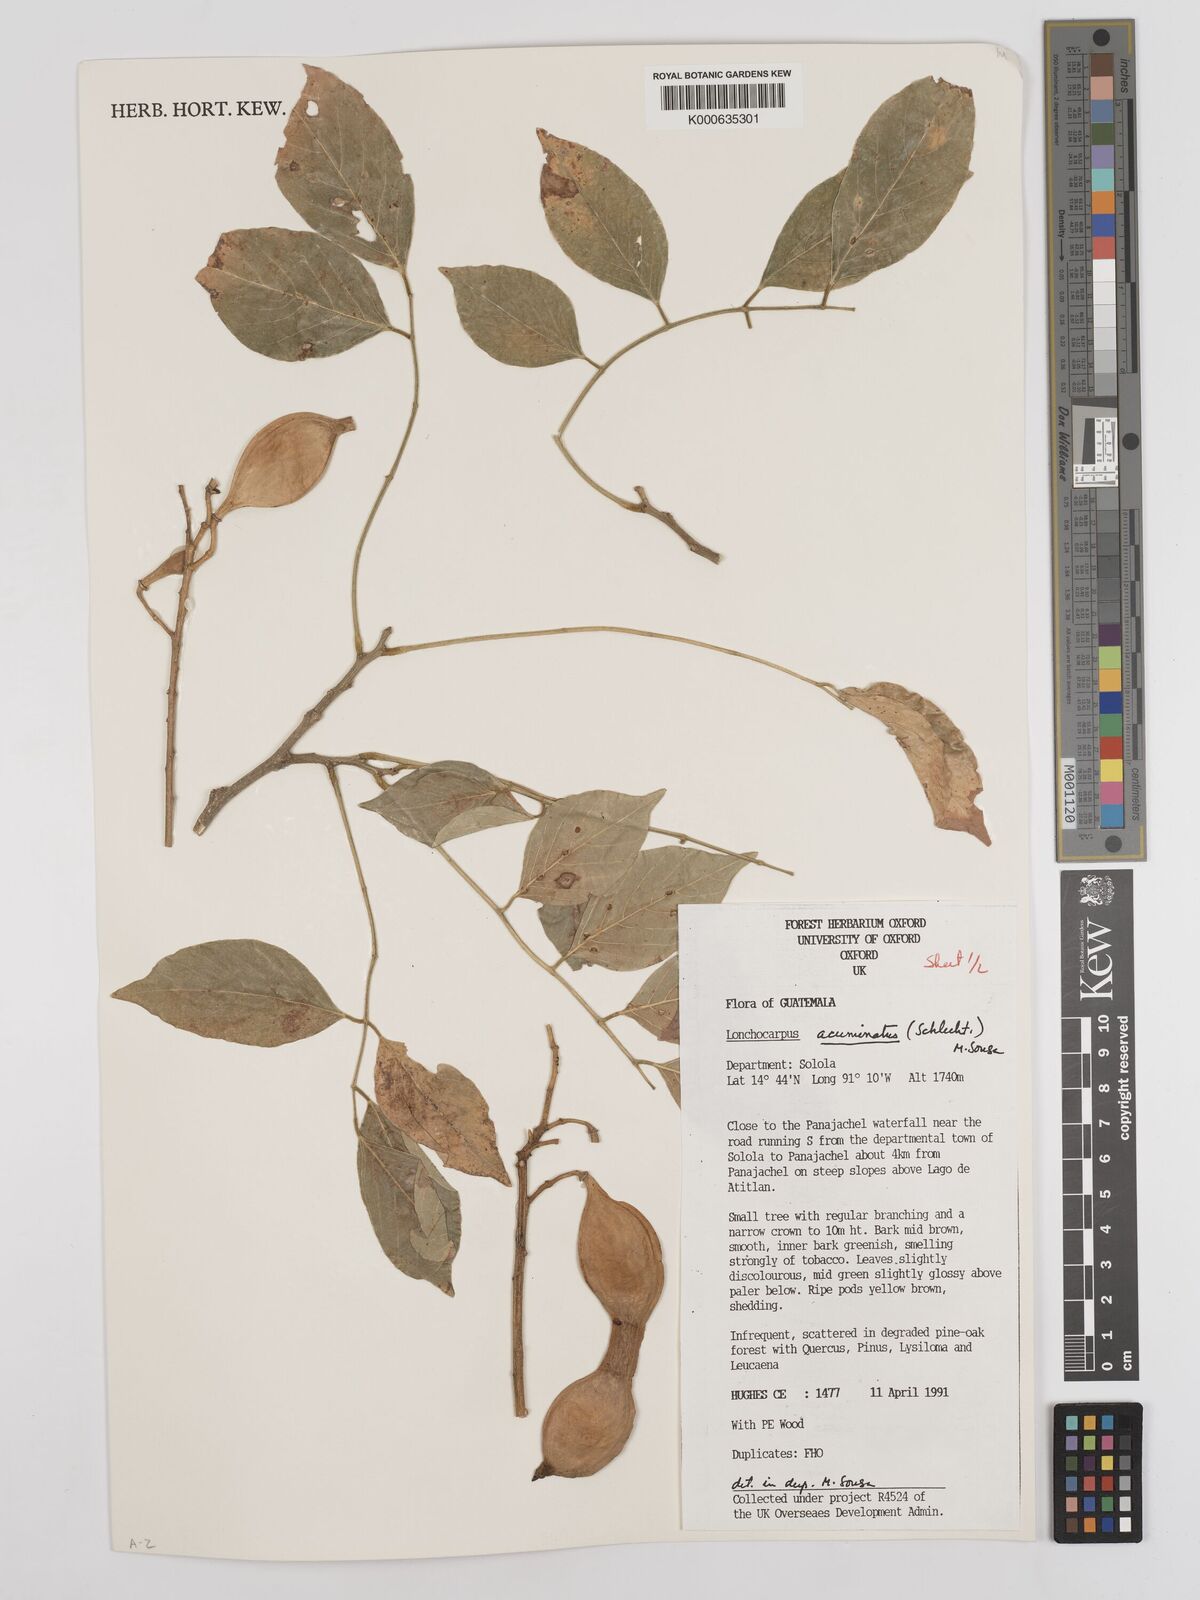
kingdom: Plantae
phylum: Tracheophyta
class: Magnoliopsida
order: Fabales
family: Fabaceae
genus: Lonchocarpus
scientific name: Lonchocarpus acuminatus
